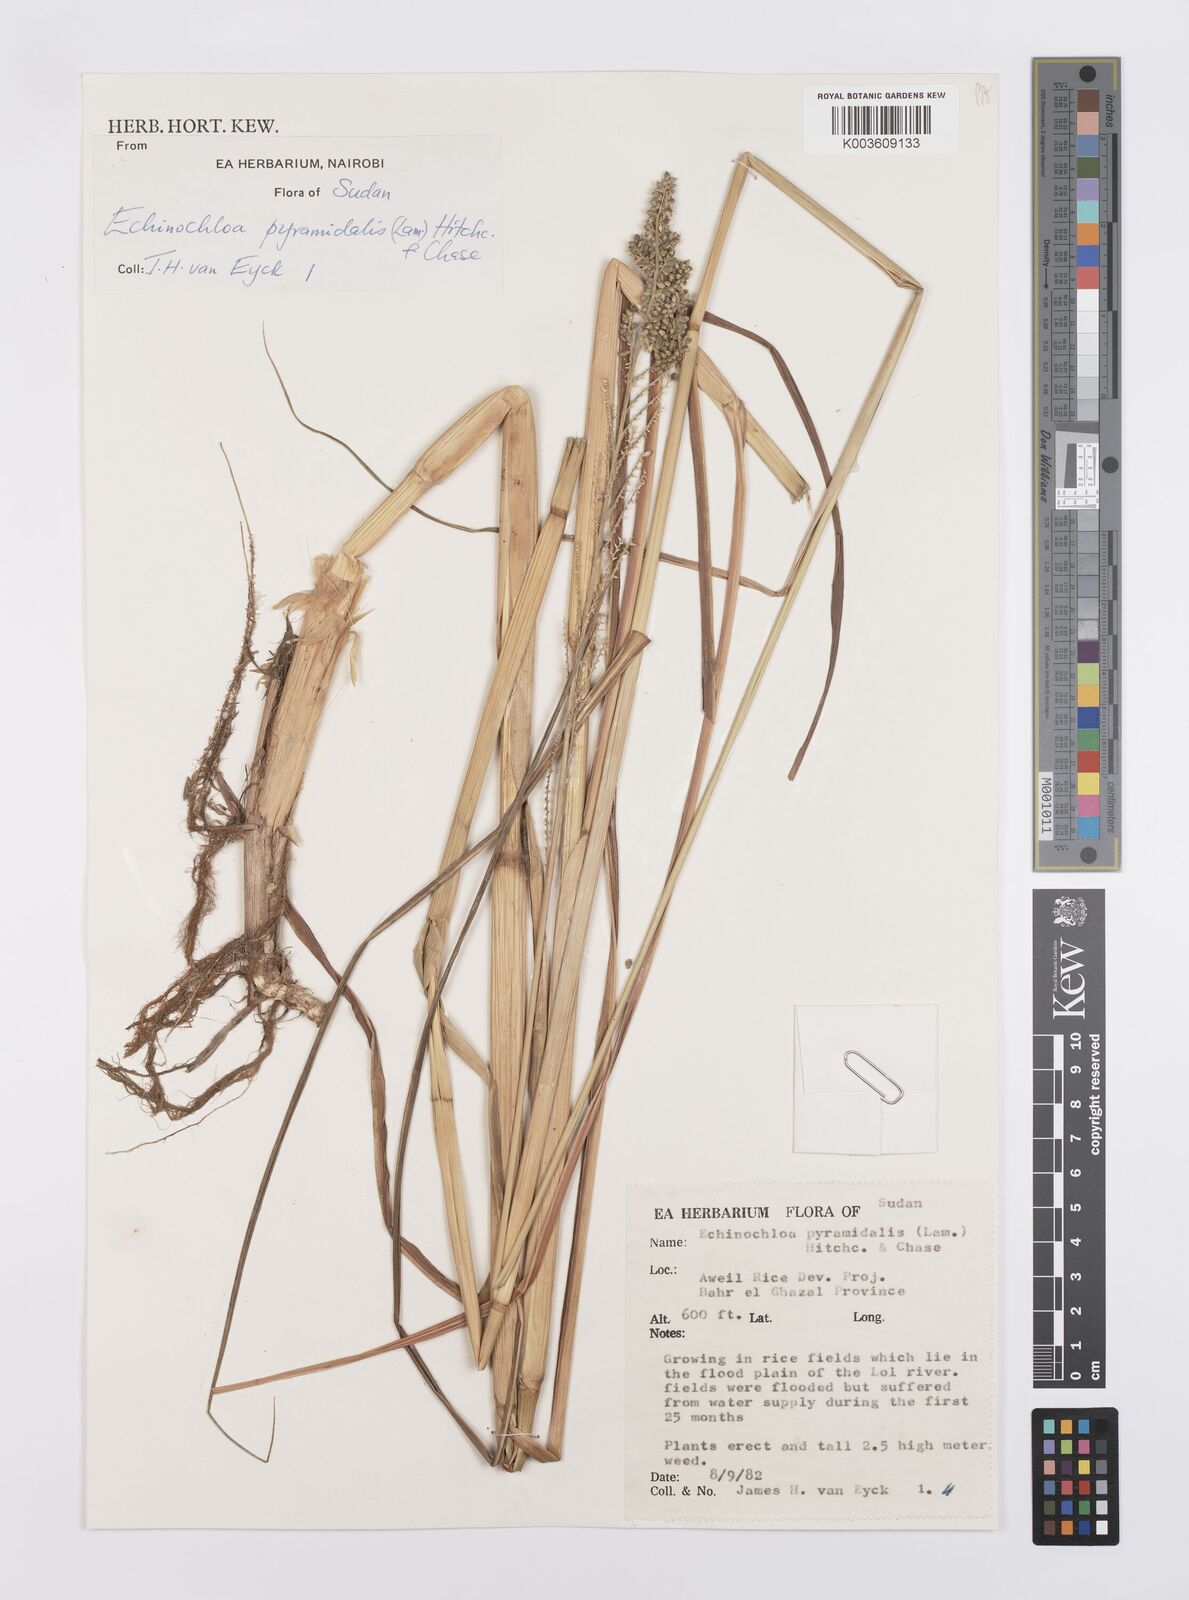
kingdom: Plantae
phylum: Tracheophyta
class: Liliopsida
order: Poales
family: Poaceae
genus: Echinochloa
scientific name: Echinochloa pyramidalis
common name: Antelope grass
